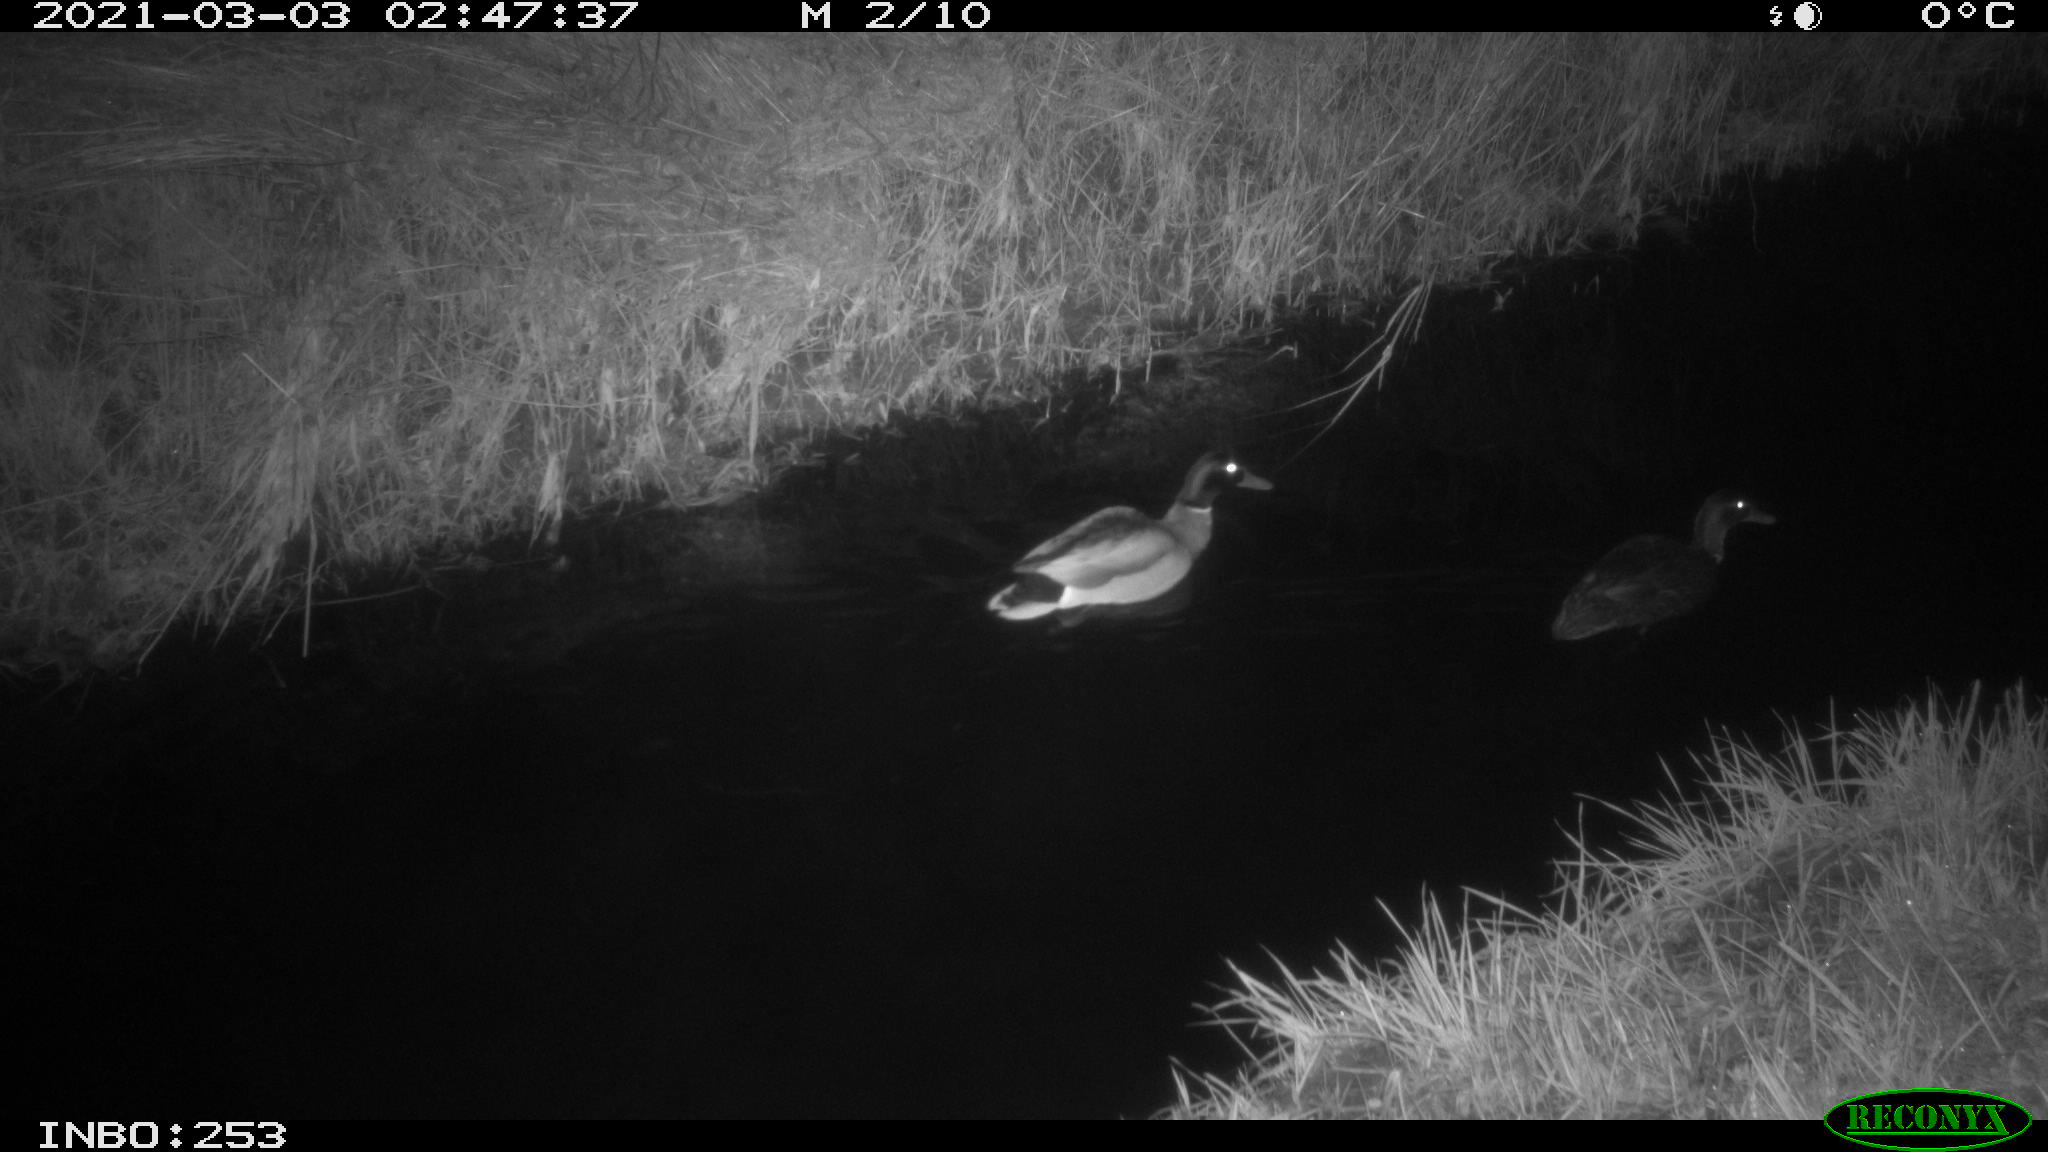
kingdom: Animalia
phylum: Chordata
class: Aves
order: Anseriformes
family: Anatidae
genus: Anas
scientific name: Anas platyrhynchos
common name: Mallard
